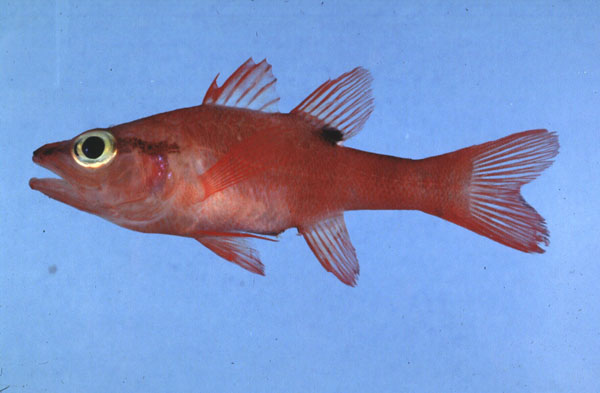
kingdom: Animalia
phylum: Chordata
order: Perciformes
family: Apogonidae
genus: Zapogon
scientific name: Zapogon evermanni
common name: Cave cardinalfish
